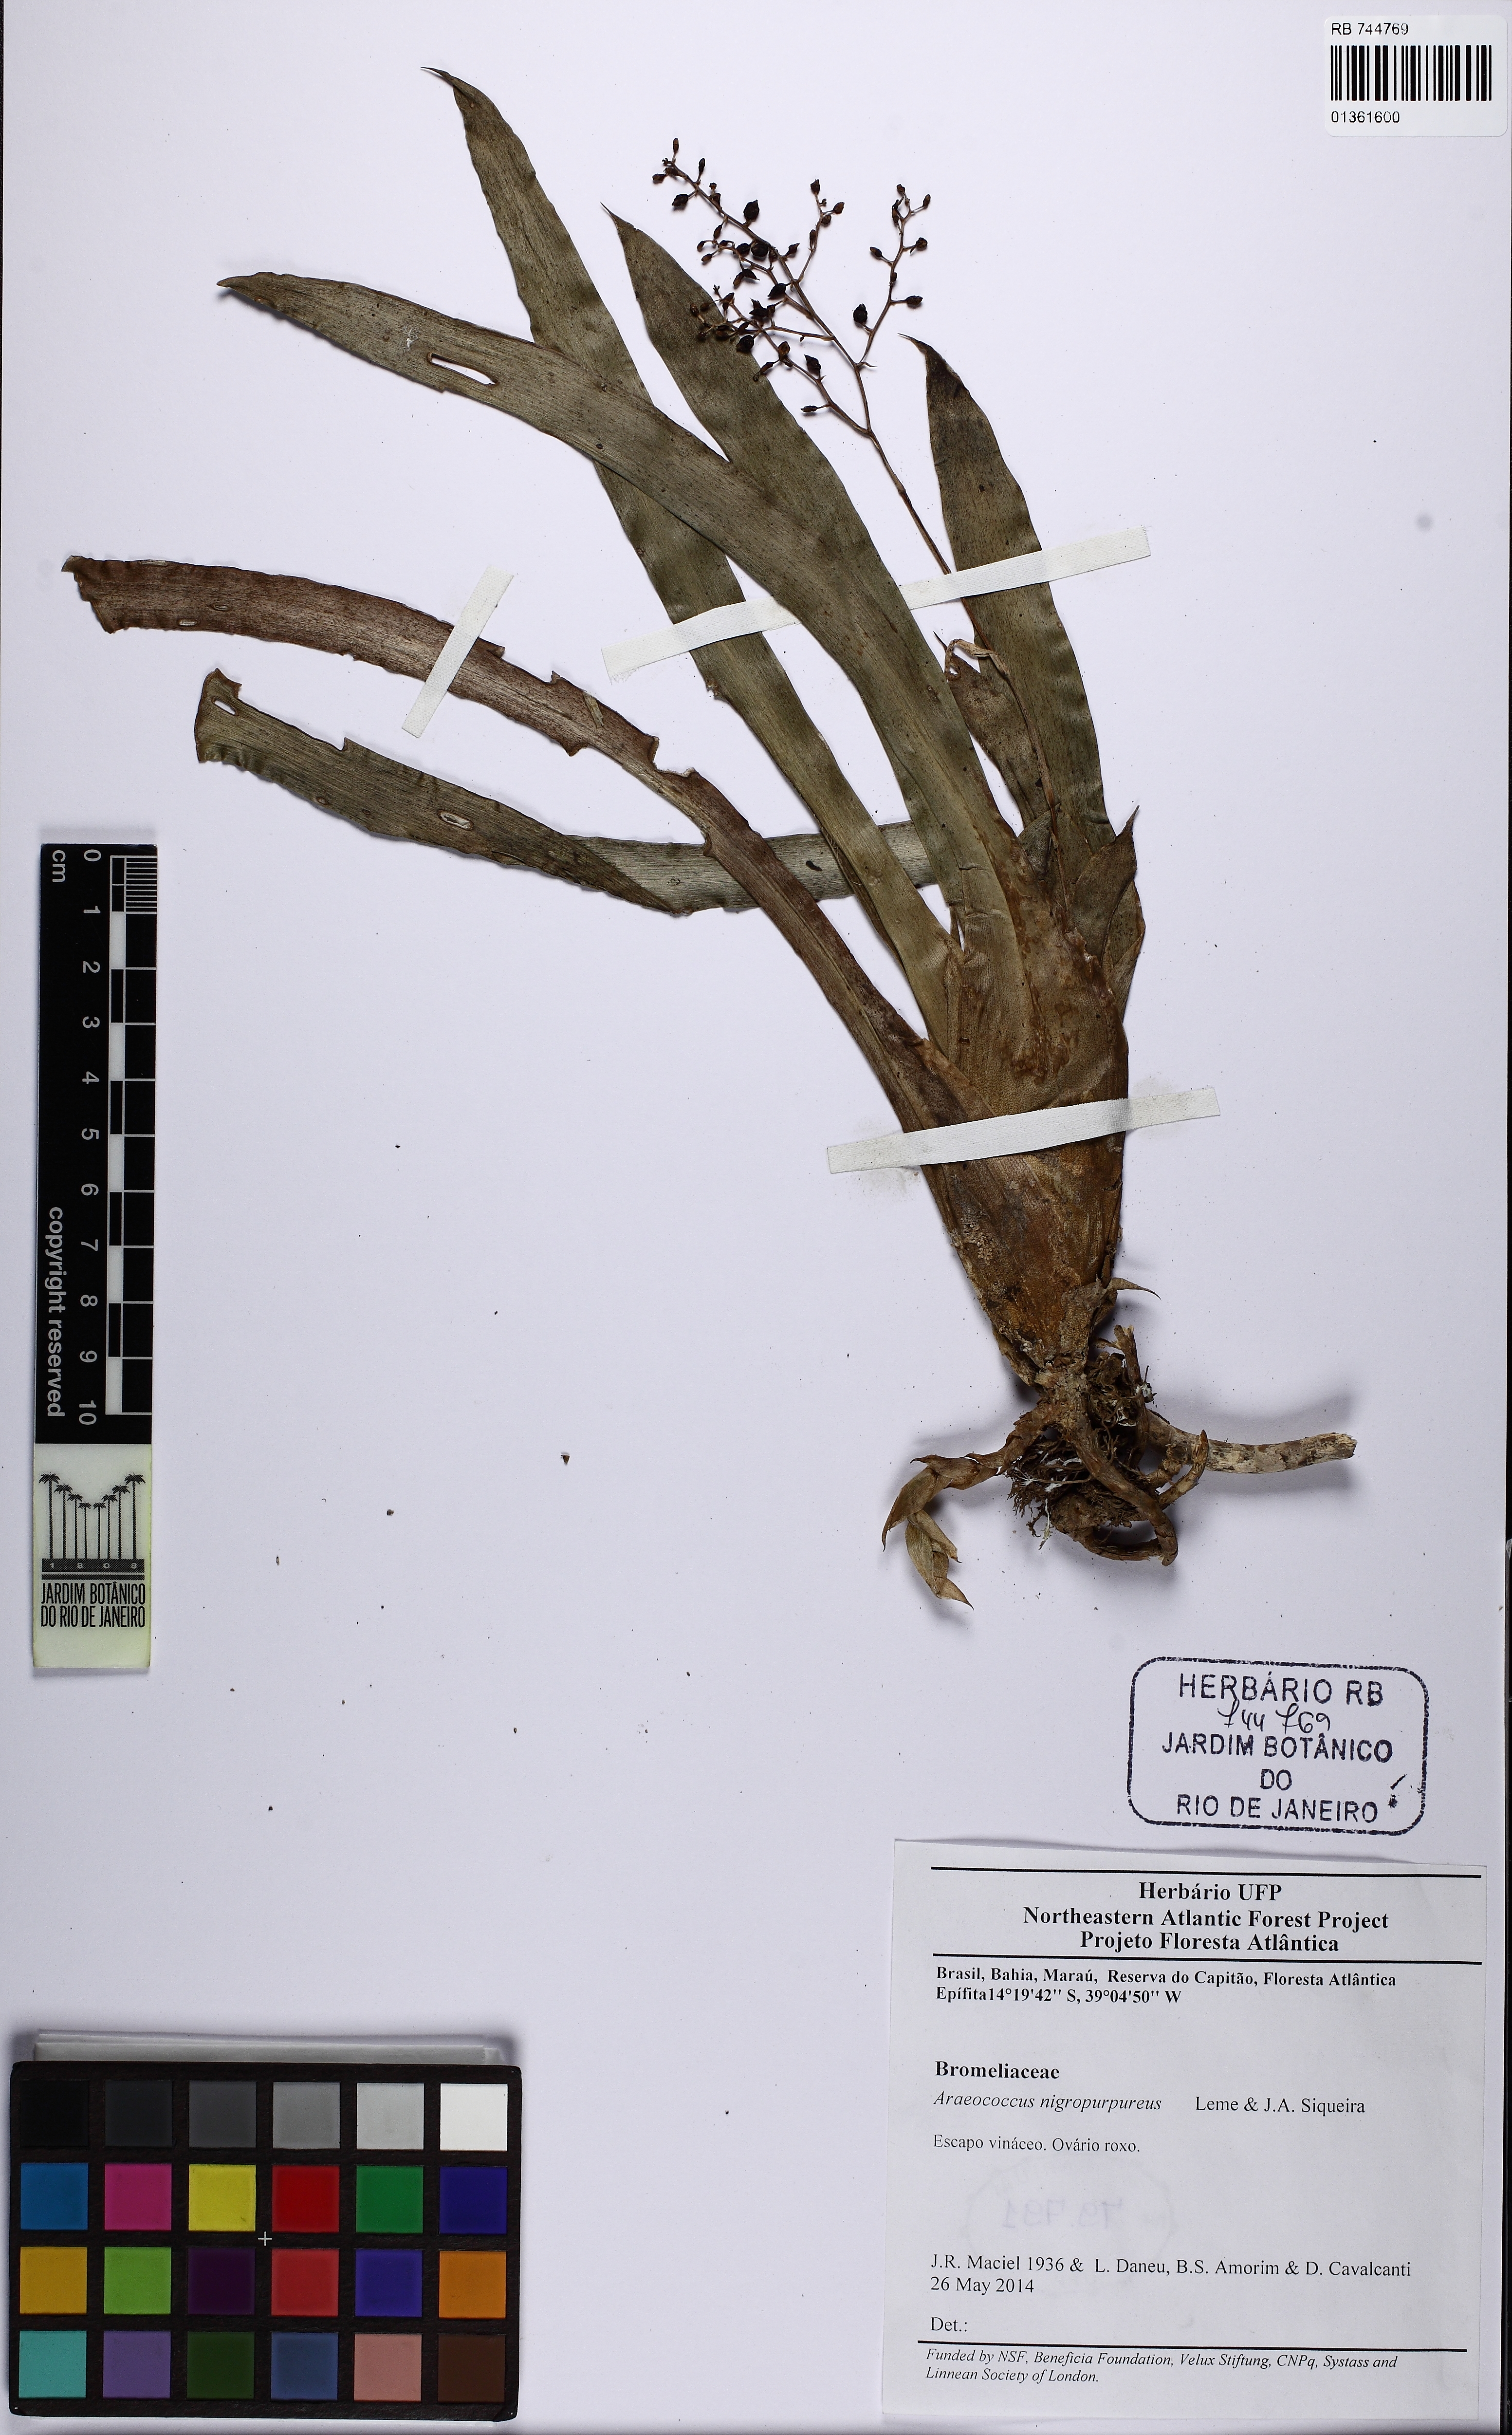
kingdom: Plantae
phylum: Tracheophyta
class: Liliopsida
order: Poales
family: Bromeliaceae
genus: Pseudaraeococcus
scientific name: Pseudaraeococcus nigropurpureus
